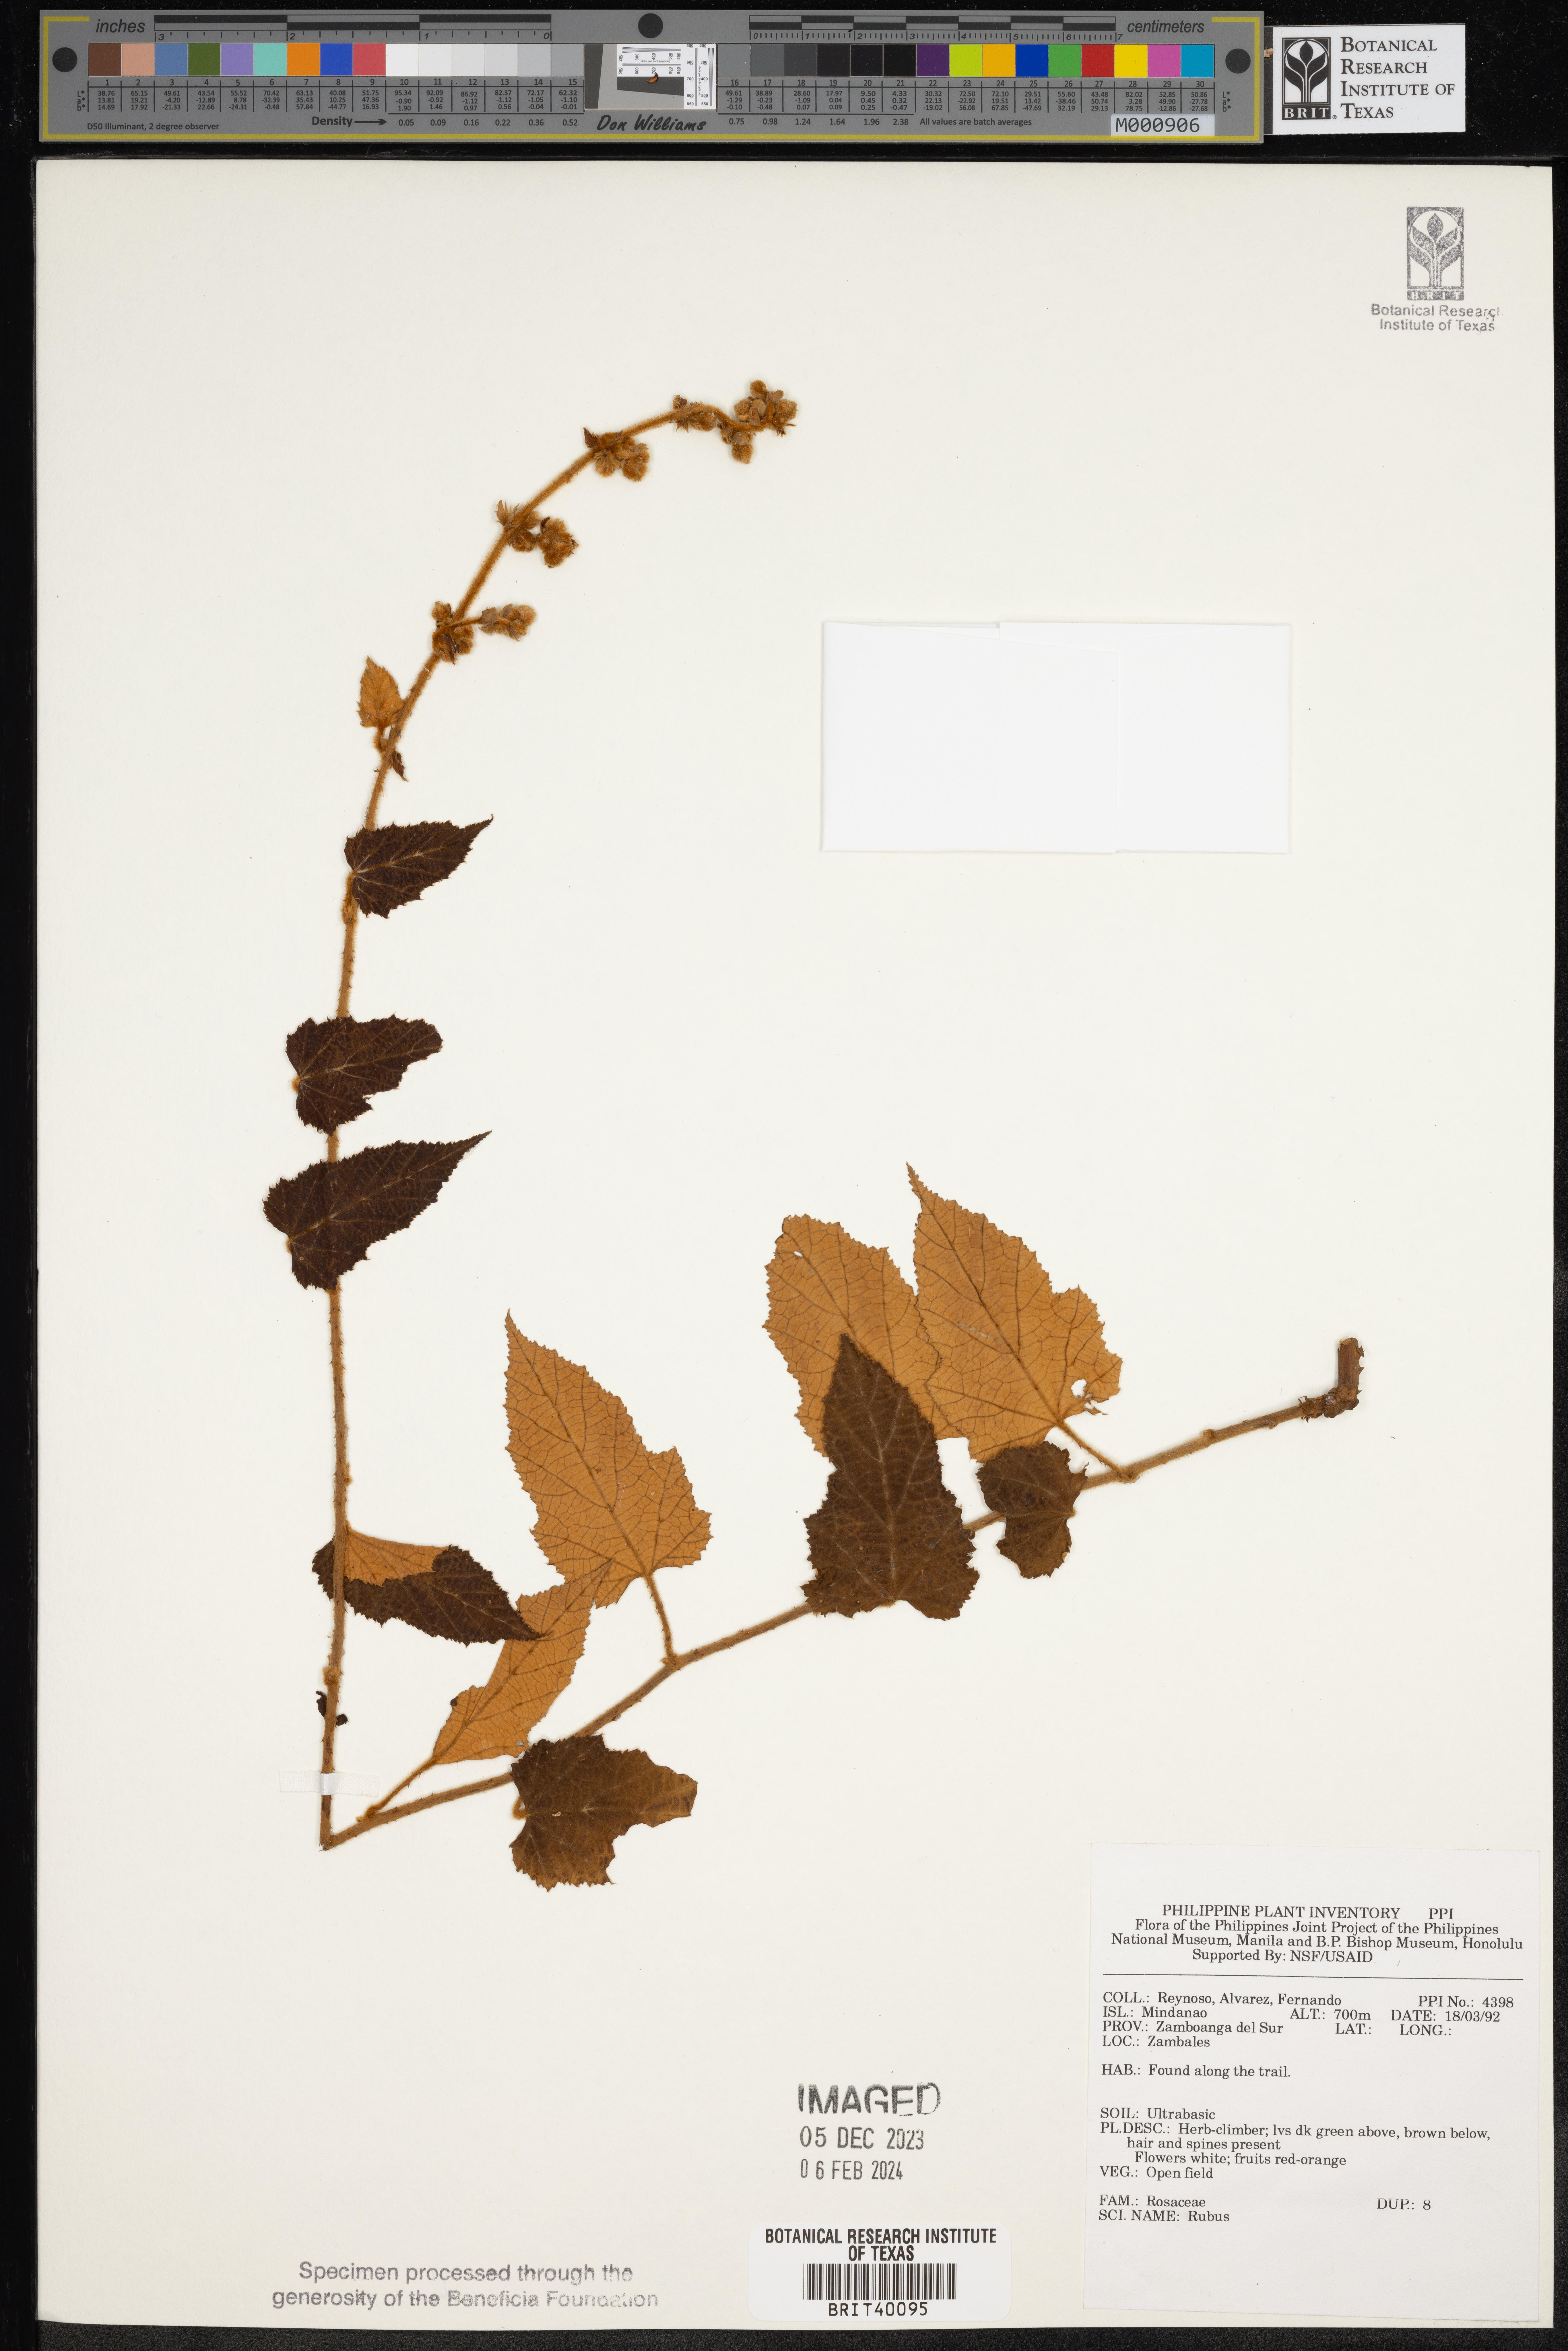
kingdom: Plantae
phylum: Tracheophyta
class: Magnoliopsida
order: Rosales
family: Rosaceae
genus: Rubus
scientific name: Rubus
